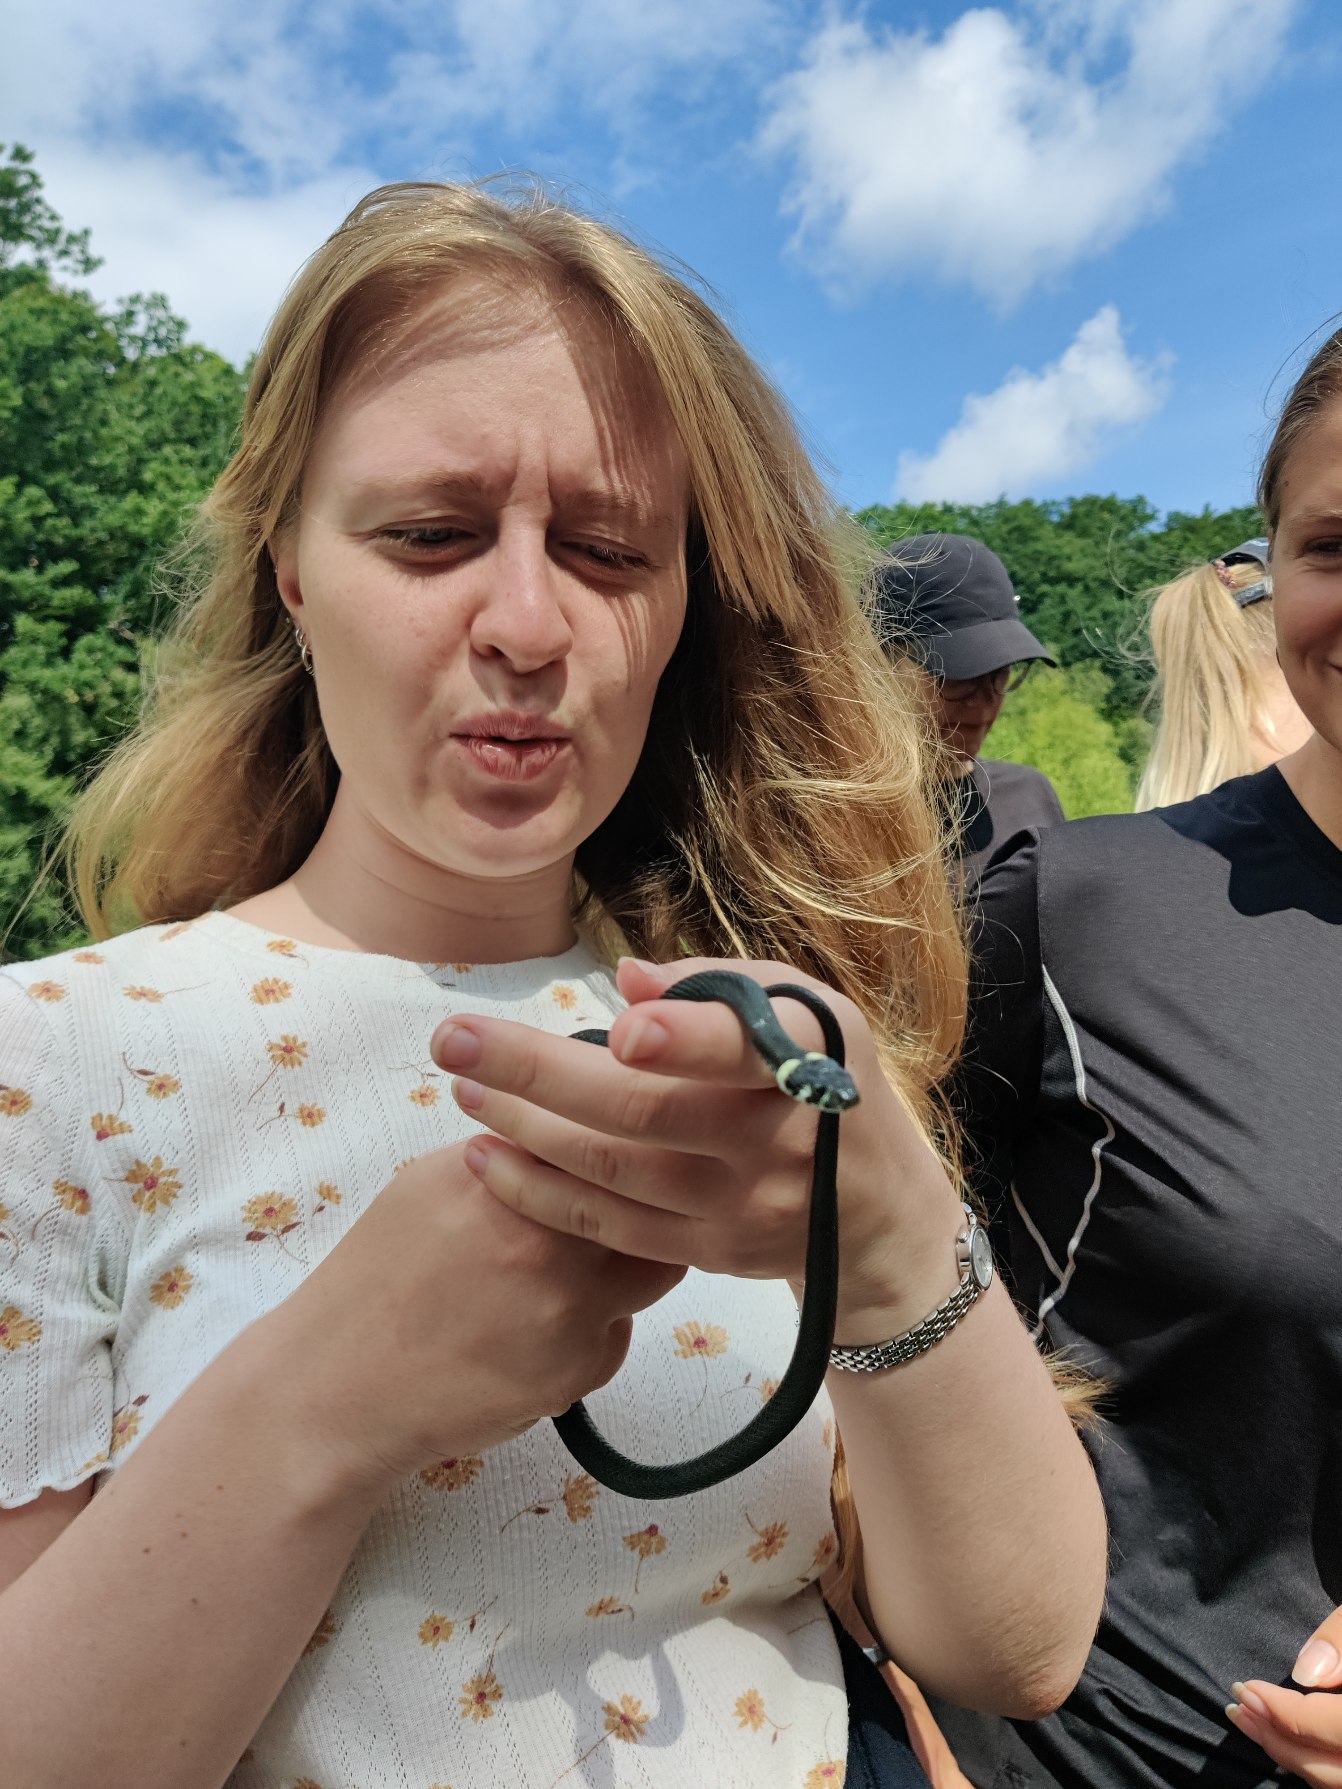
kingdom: Animalia
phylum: Chordata
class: Squamata
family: Colubridae
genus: Natrix
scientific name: Natrix natrix
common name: Snog
